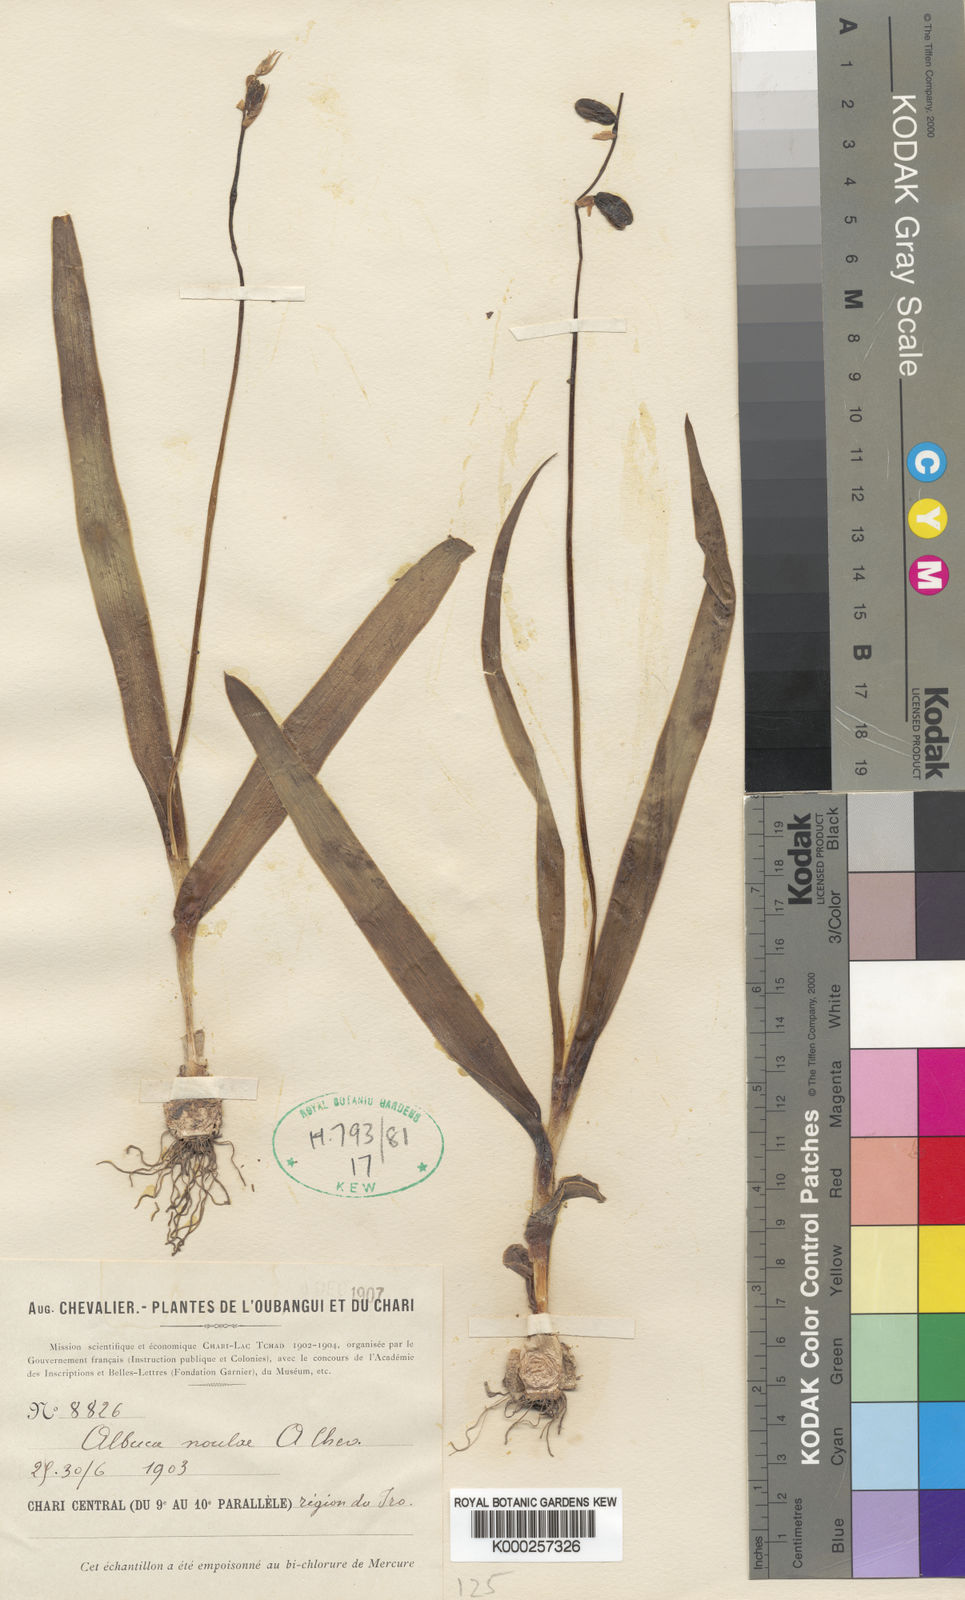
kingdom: Plantae
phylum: Tracheophyta
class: Liliopsida
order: Asparagales
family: Asparagaceae
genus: Albuca
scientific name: Albuca
